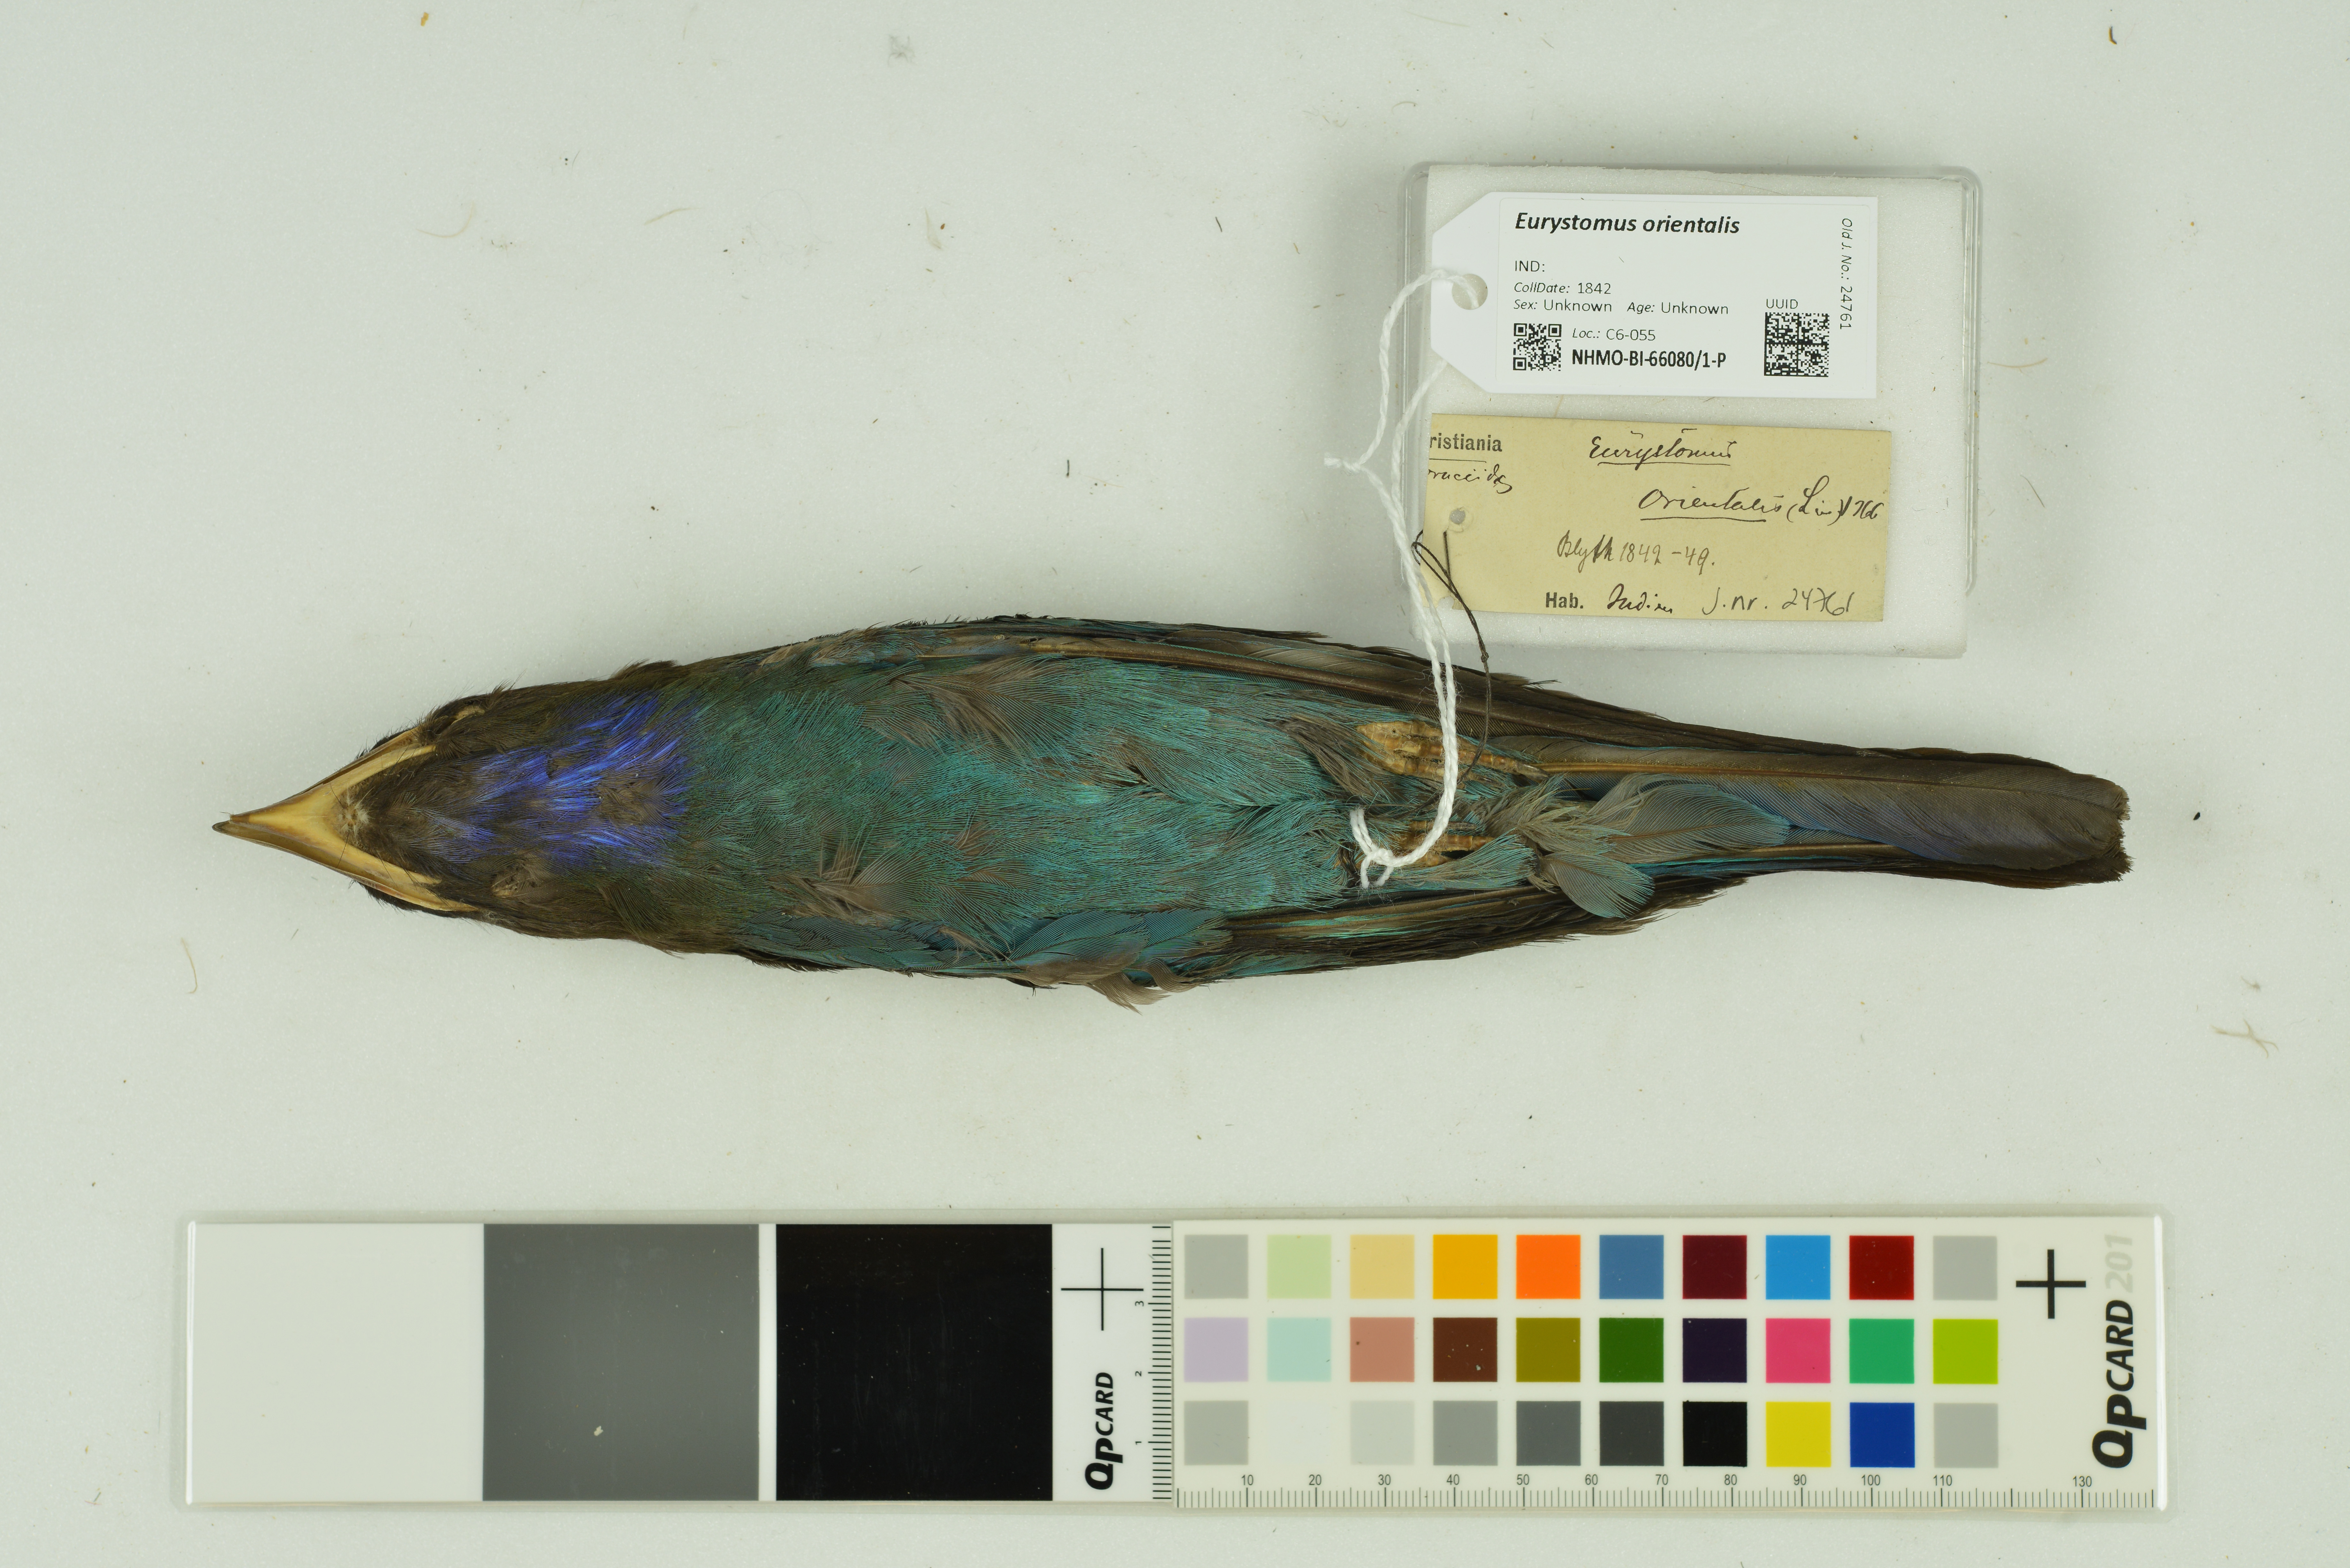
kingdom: Animalia
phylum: Chordata
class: Aves
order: Coraciiformes
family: Coraciidae
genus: Eurystomus
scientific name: Eurystomus orientalis
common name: Oriental dollarbird
